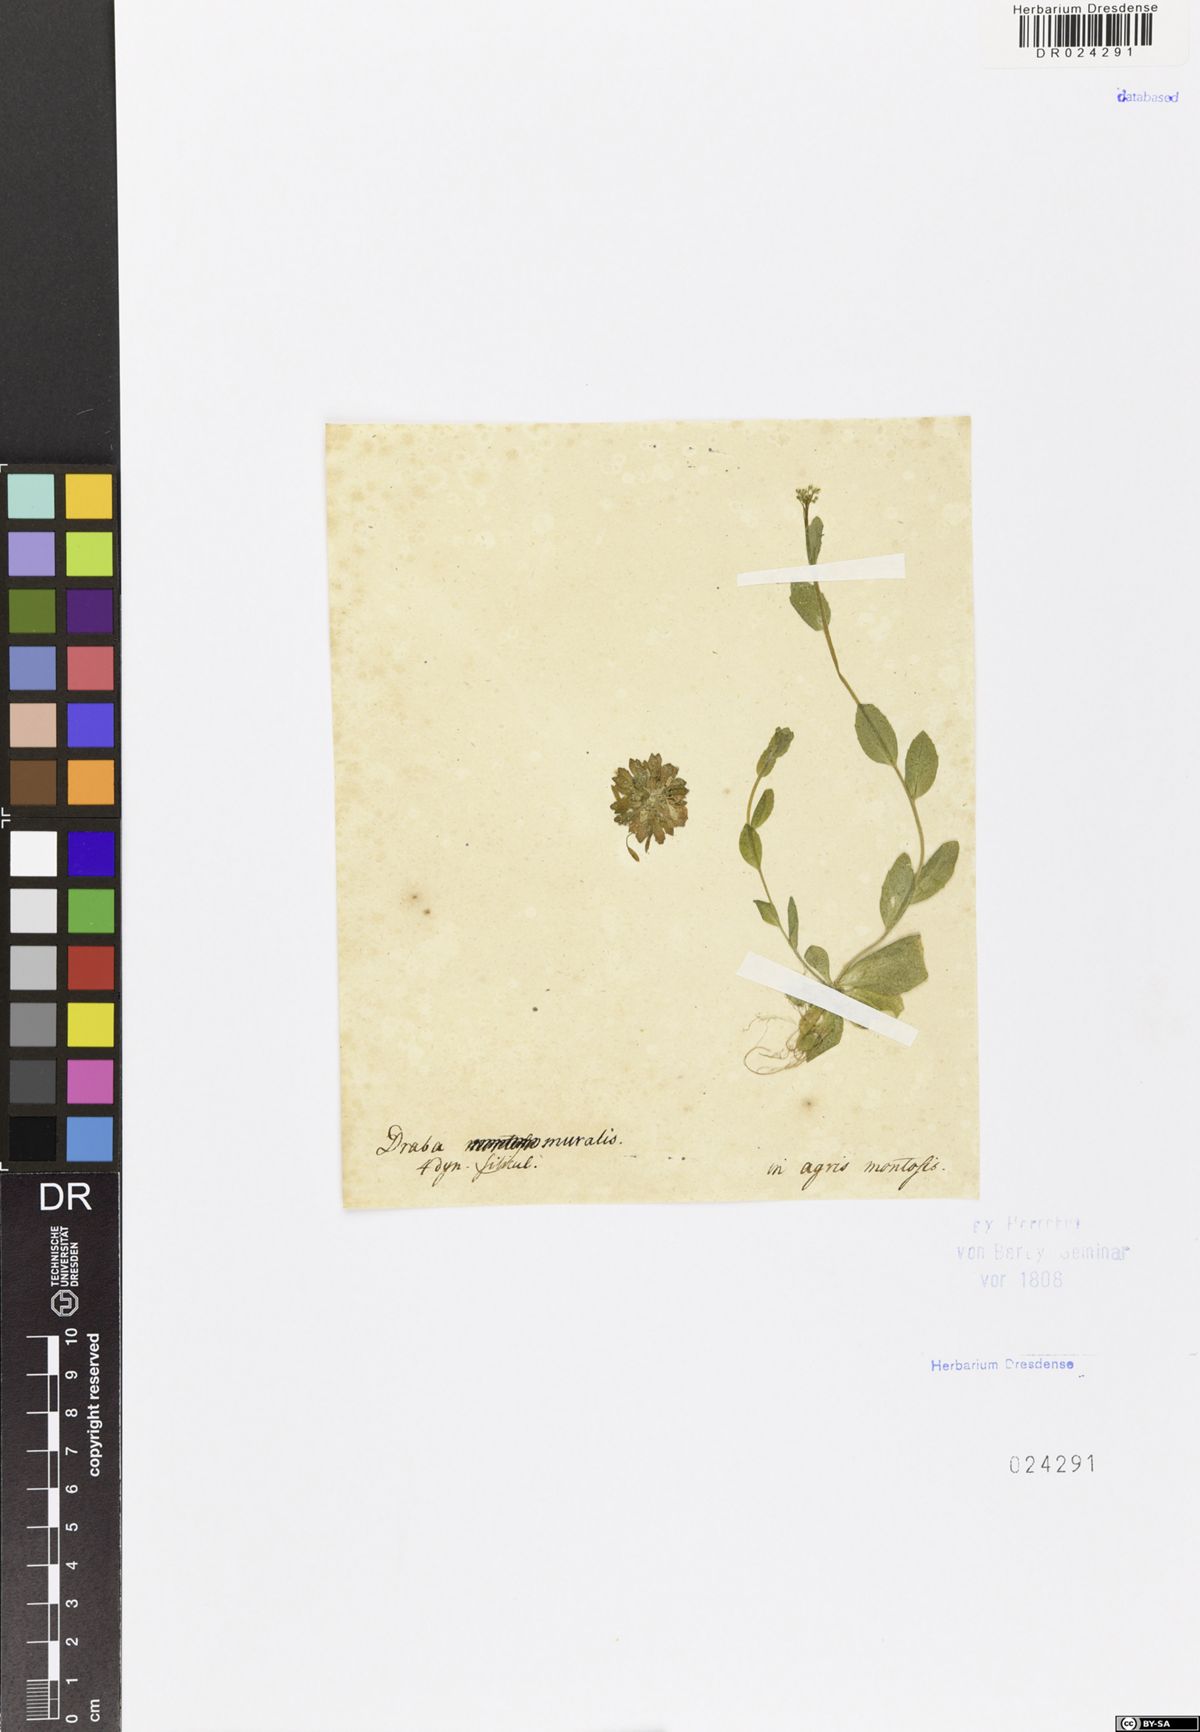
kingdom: Plantae
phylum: Tracheophyta
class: Magnoliopsida
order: Brassicales
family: Brassicaceae
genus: Drabella
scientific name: Drabella muralis
